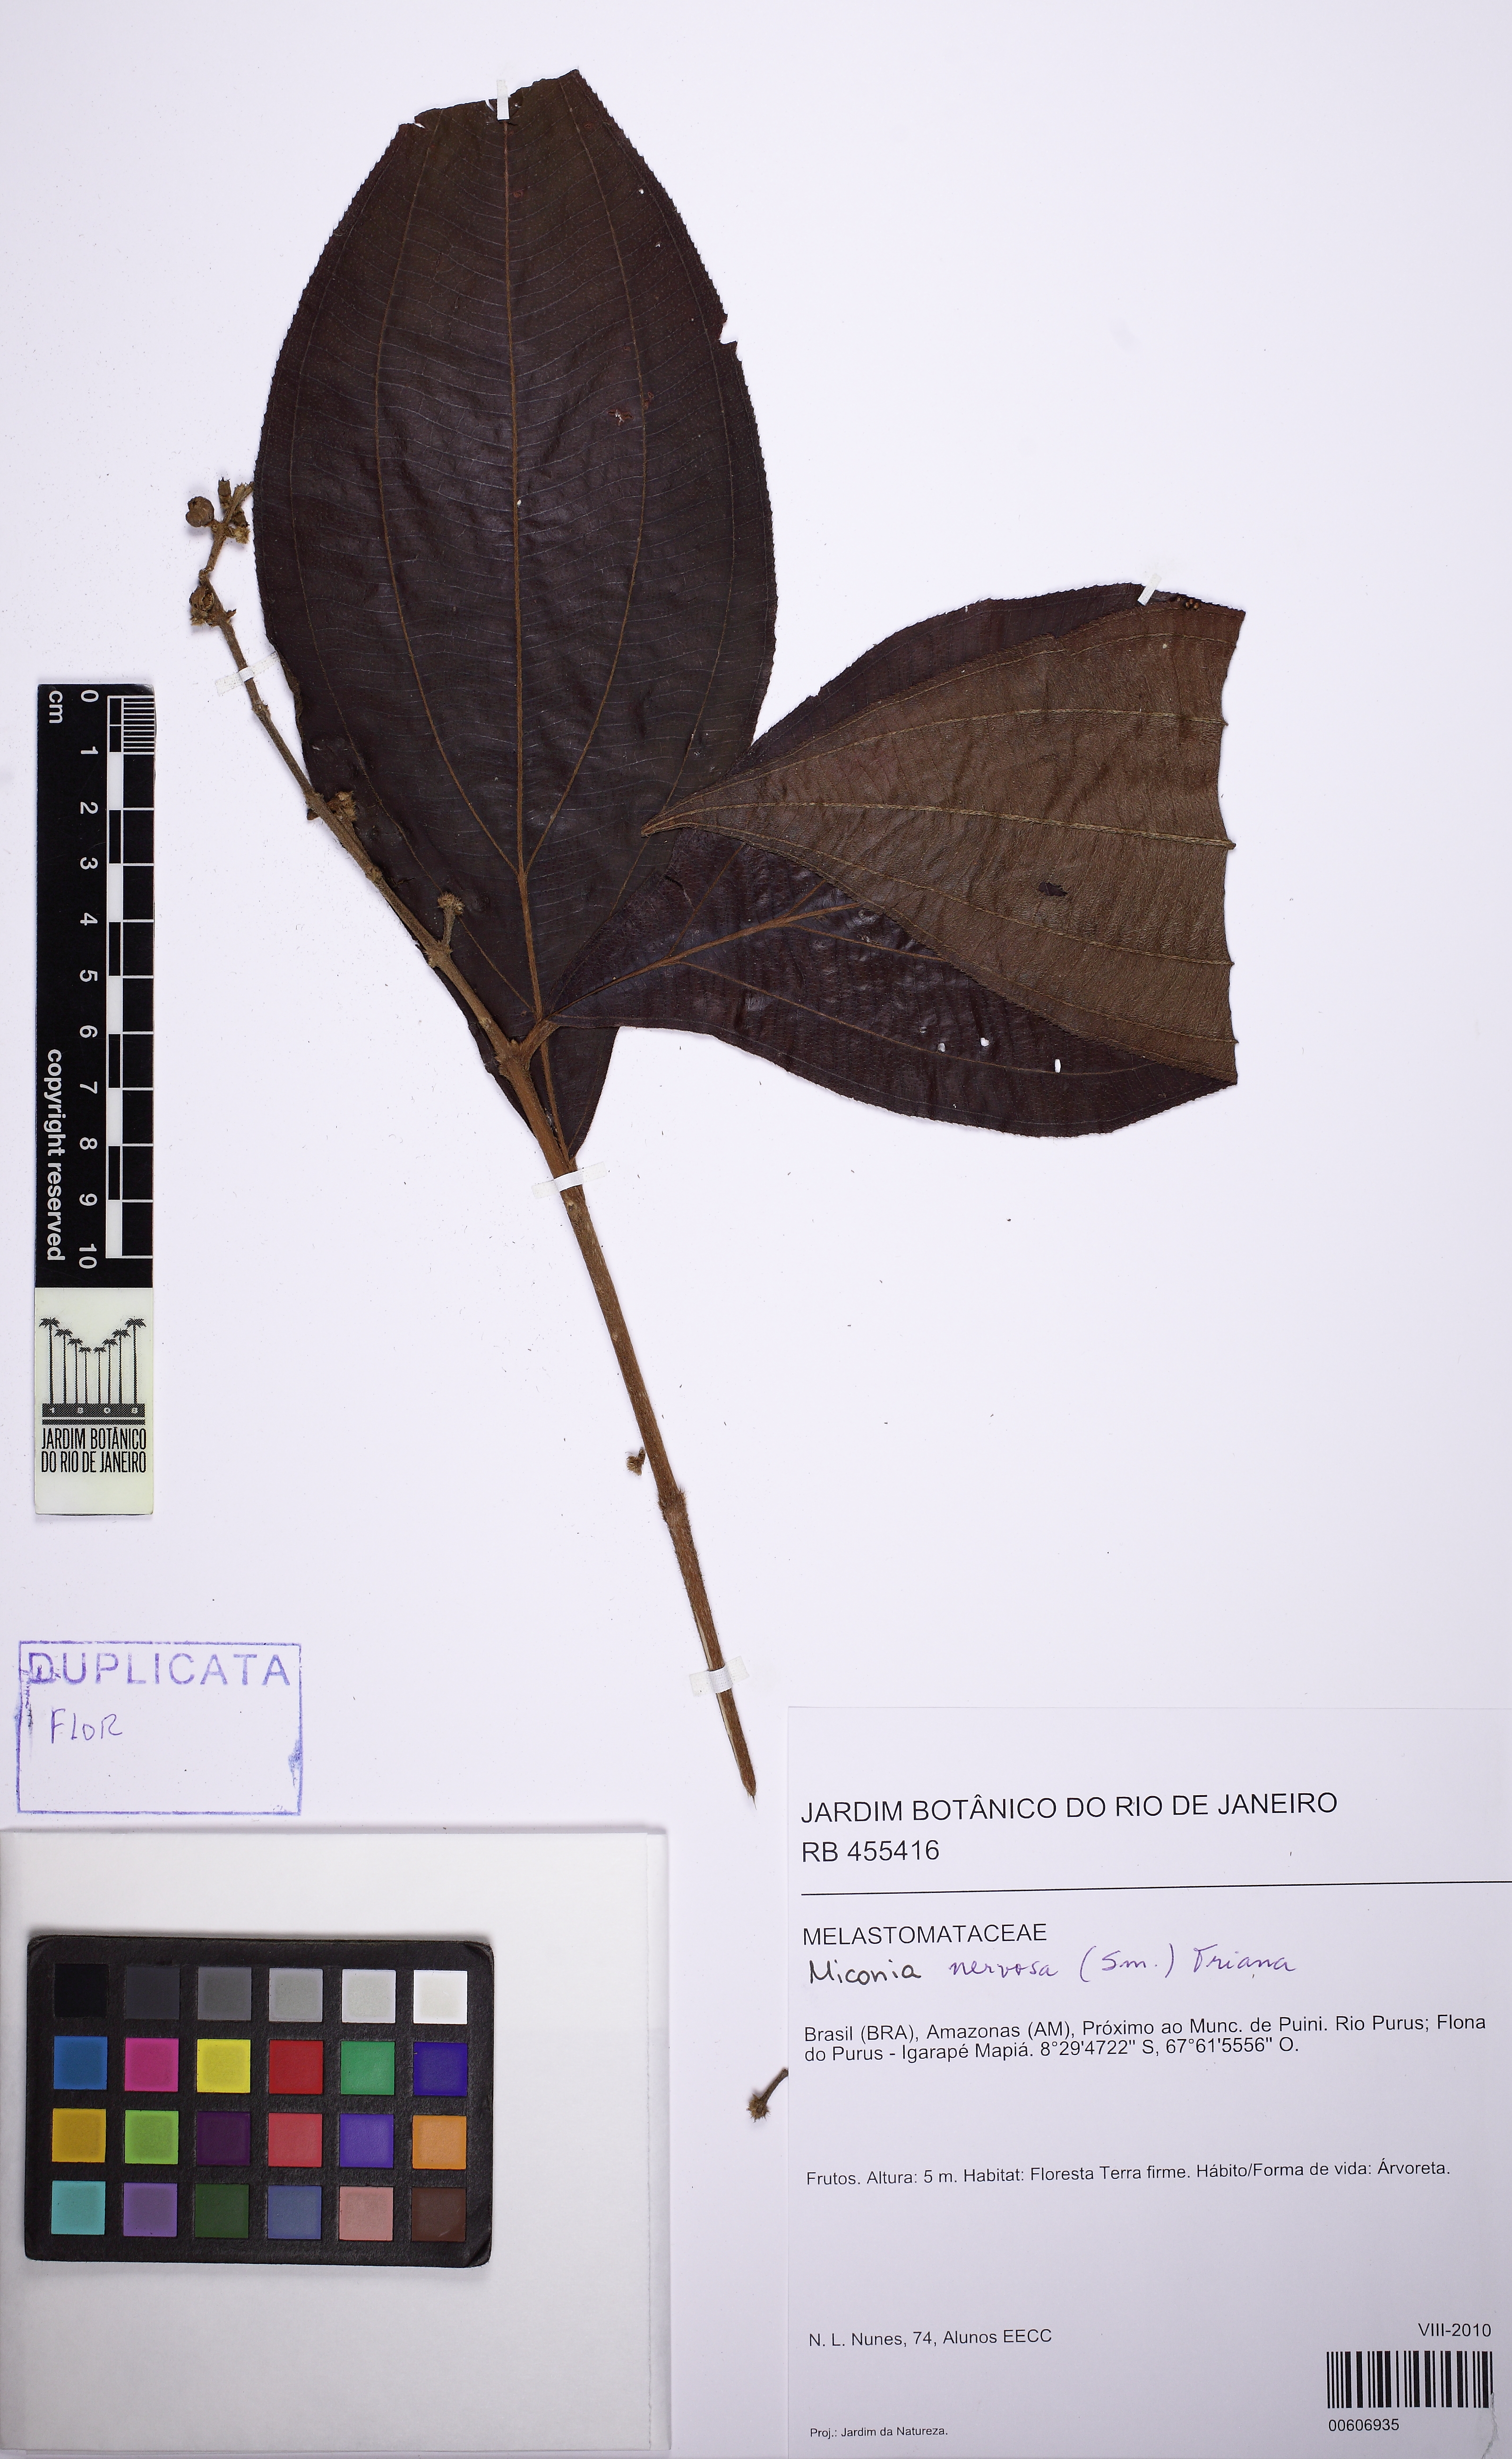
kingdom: Plantae
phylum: Tracheophyta
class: Magnoliopsida
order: Myrtales
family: Melastomataceae
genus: Miconia
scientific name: Miconia nervosa
